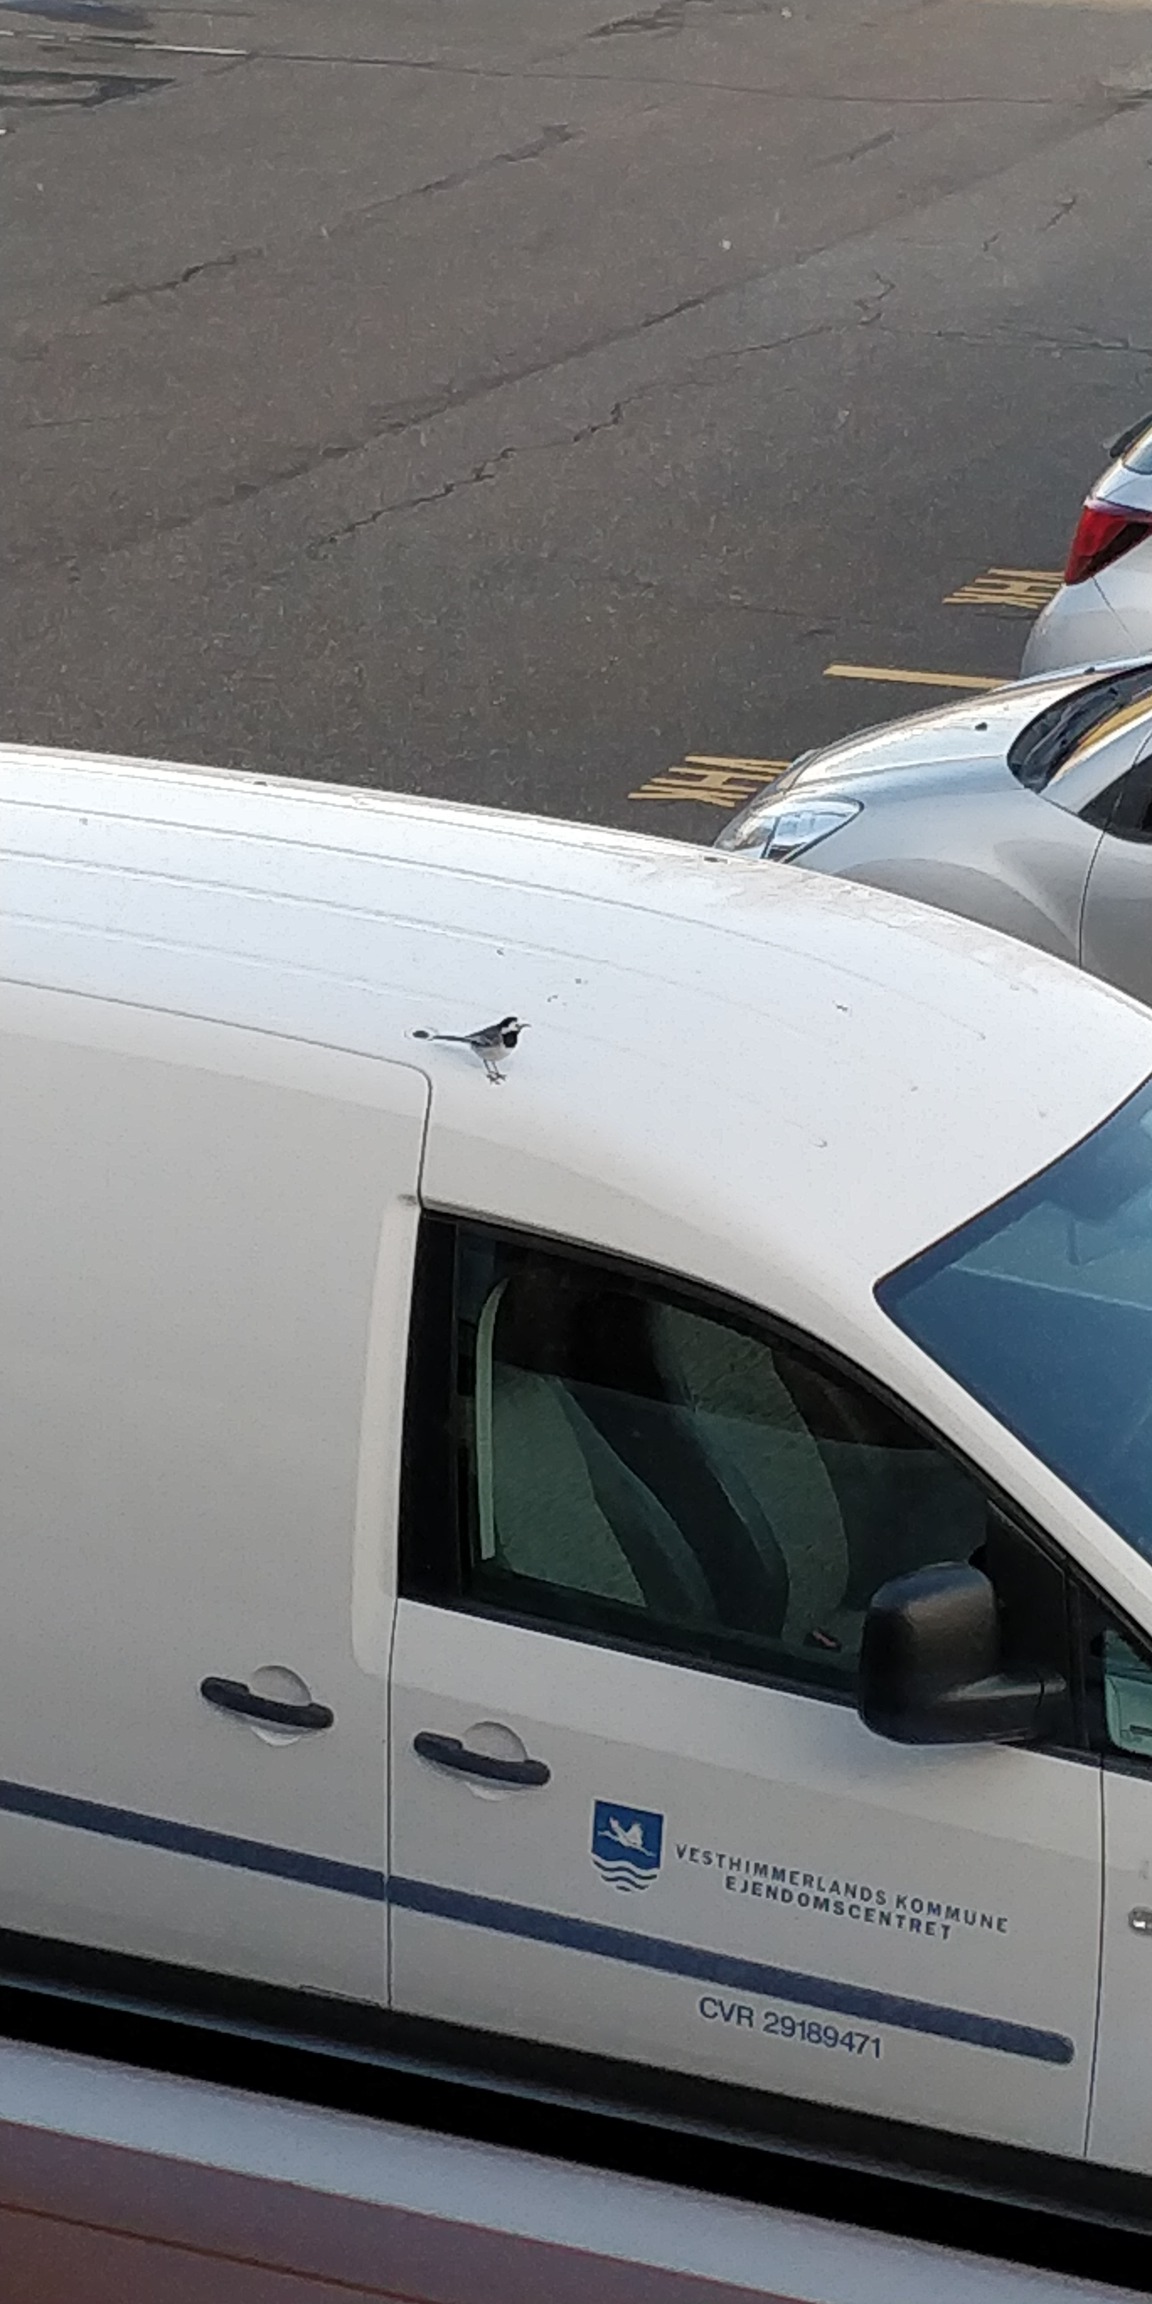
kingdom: Animalia
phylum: Chordata
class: Aves
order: Passeriformes
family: Motacillidae
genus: Motacilla
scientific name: Motacilla alba
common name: Hvid vipstjert
